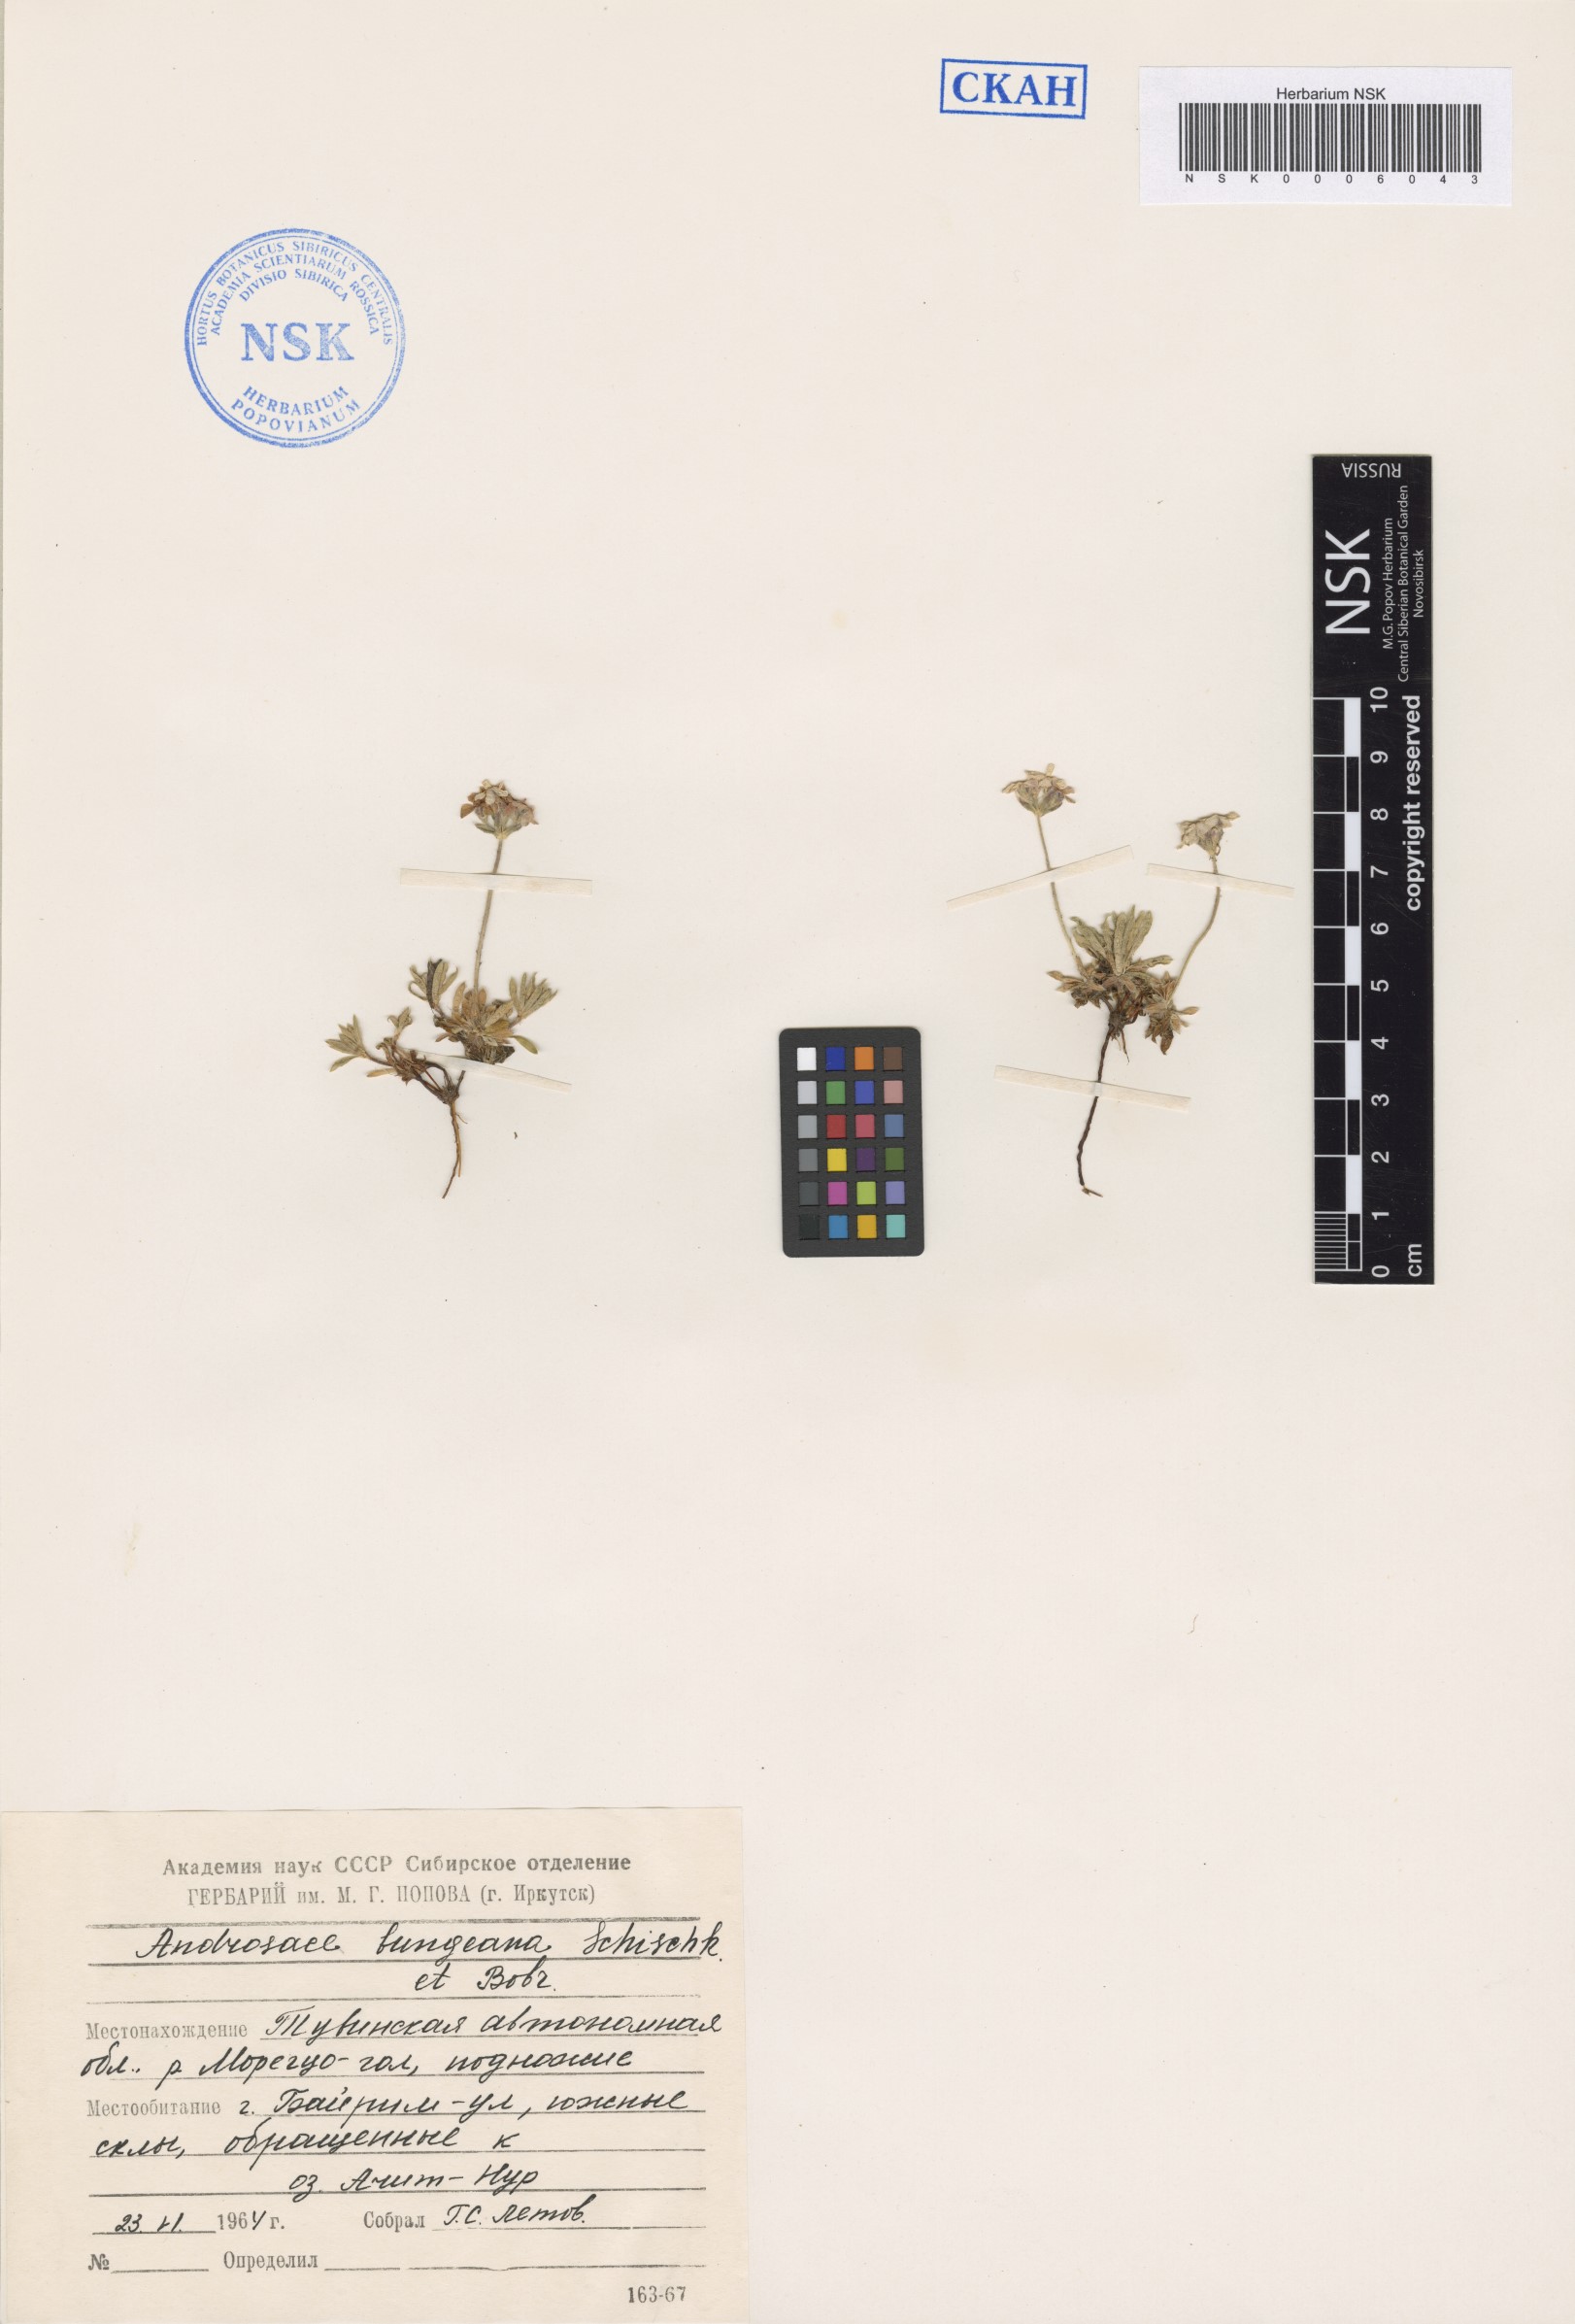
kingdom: Plantae
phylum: Tracheophyta
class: Magnoliopsida
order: Ericales
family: Primulaceae
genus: Androsace
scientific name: Androsace bungeana
